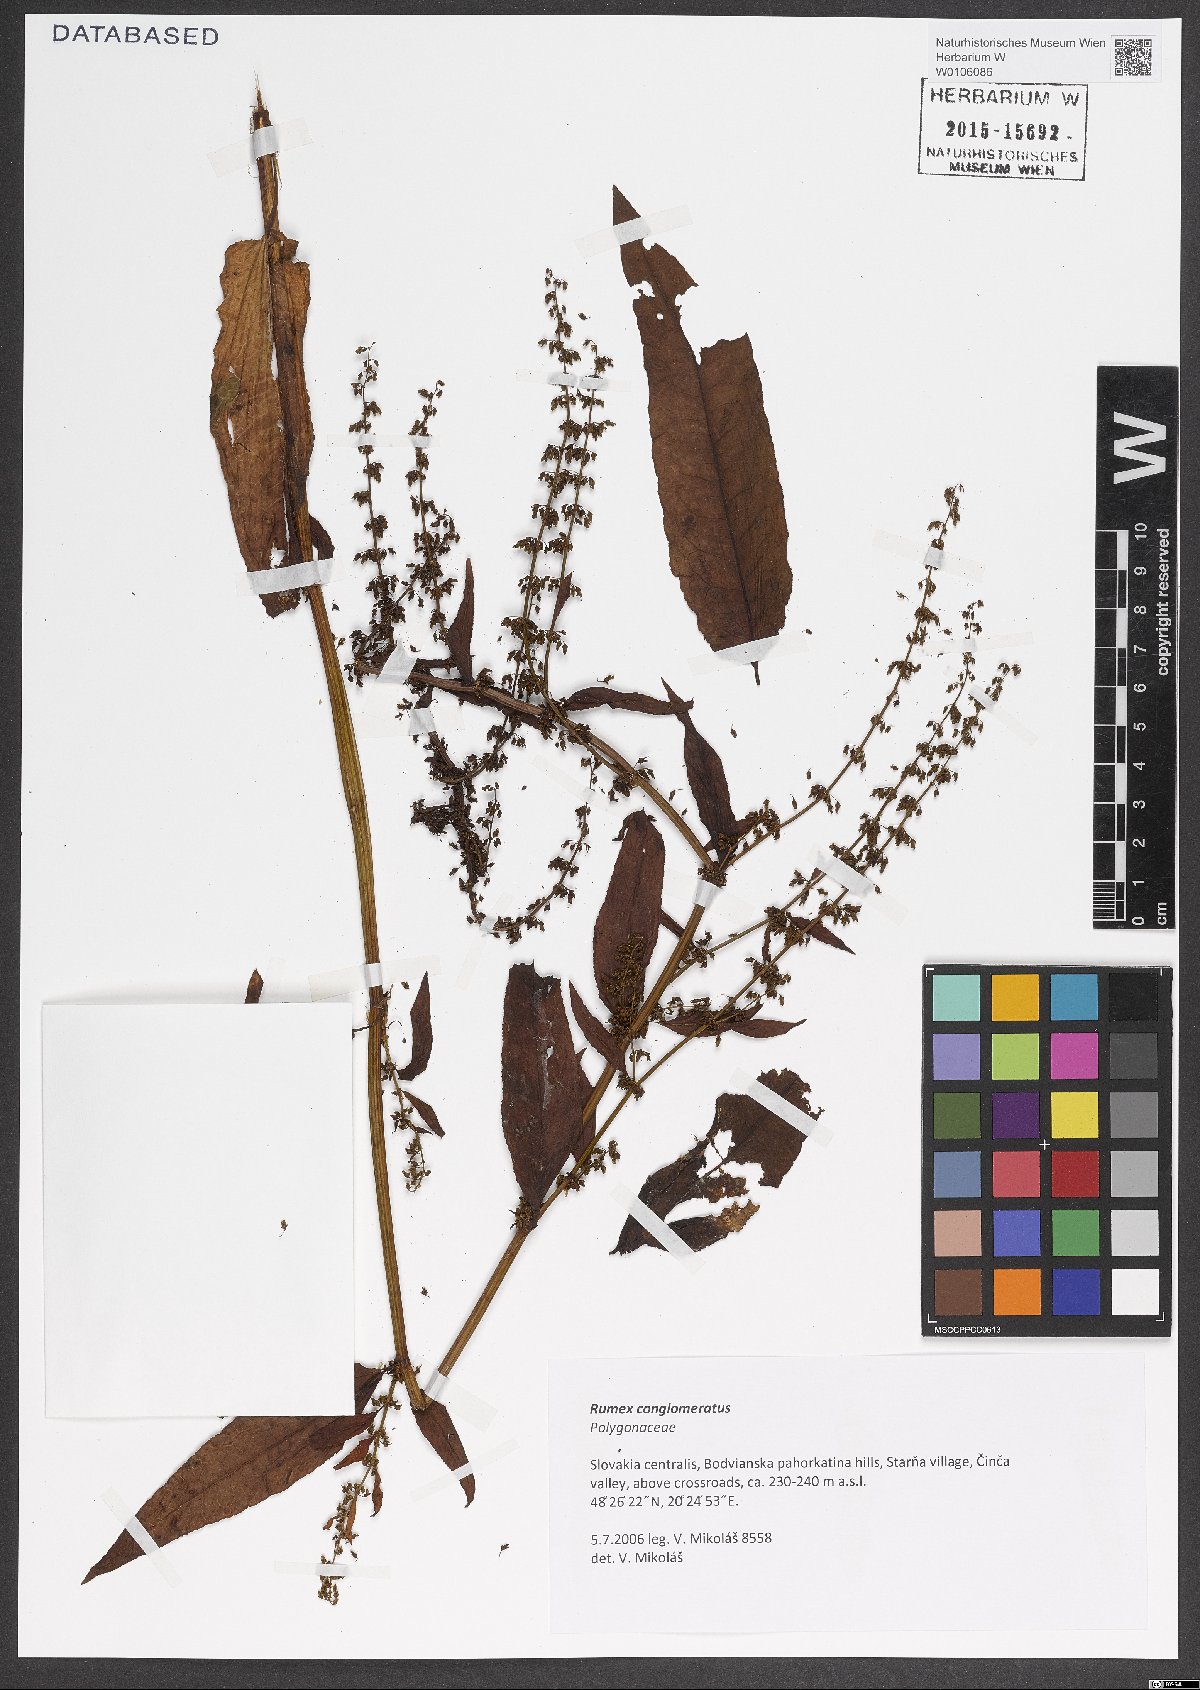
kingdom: Plantae
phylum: Tracheophyta
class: Magnoliopsida
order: Caryophyllales
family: Polygonaceae
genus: Rumex
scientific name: Rumex conglomeratus
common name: Clustered dock
